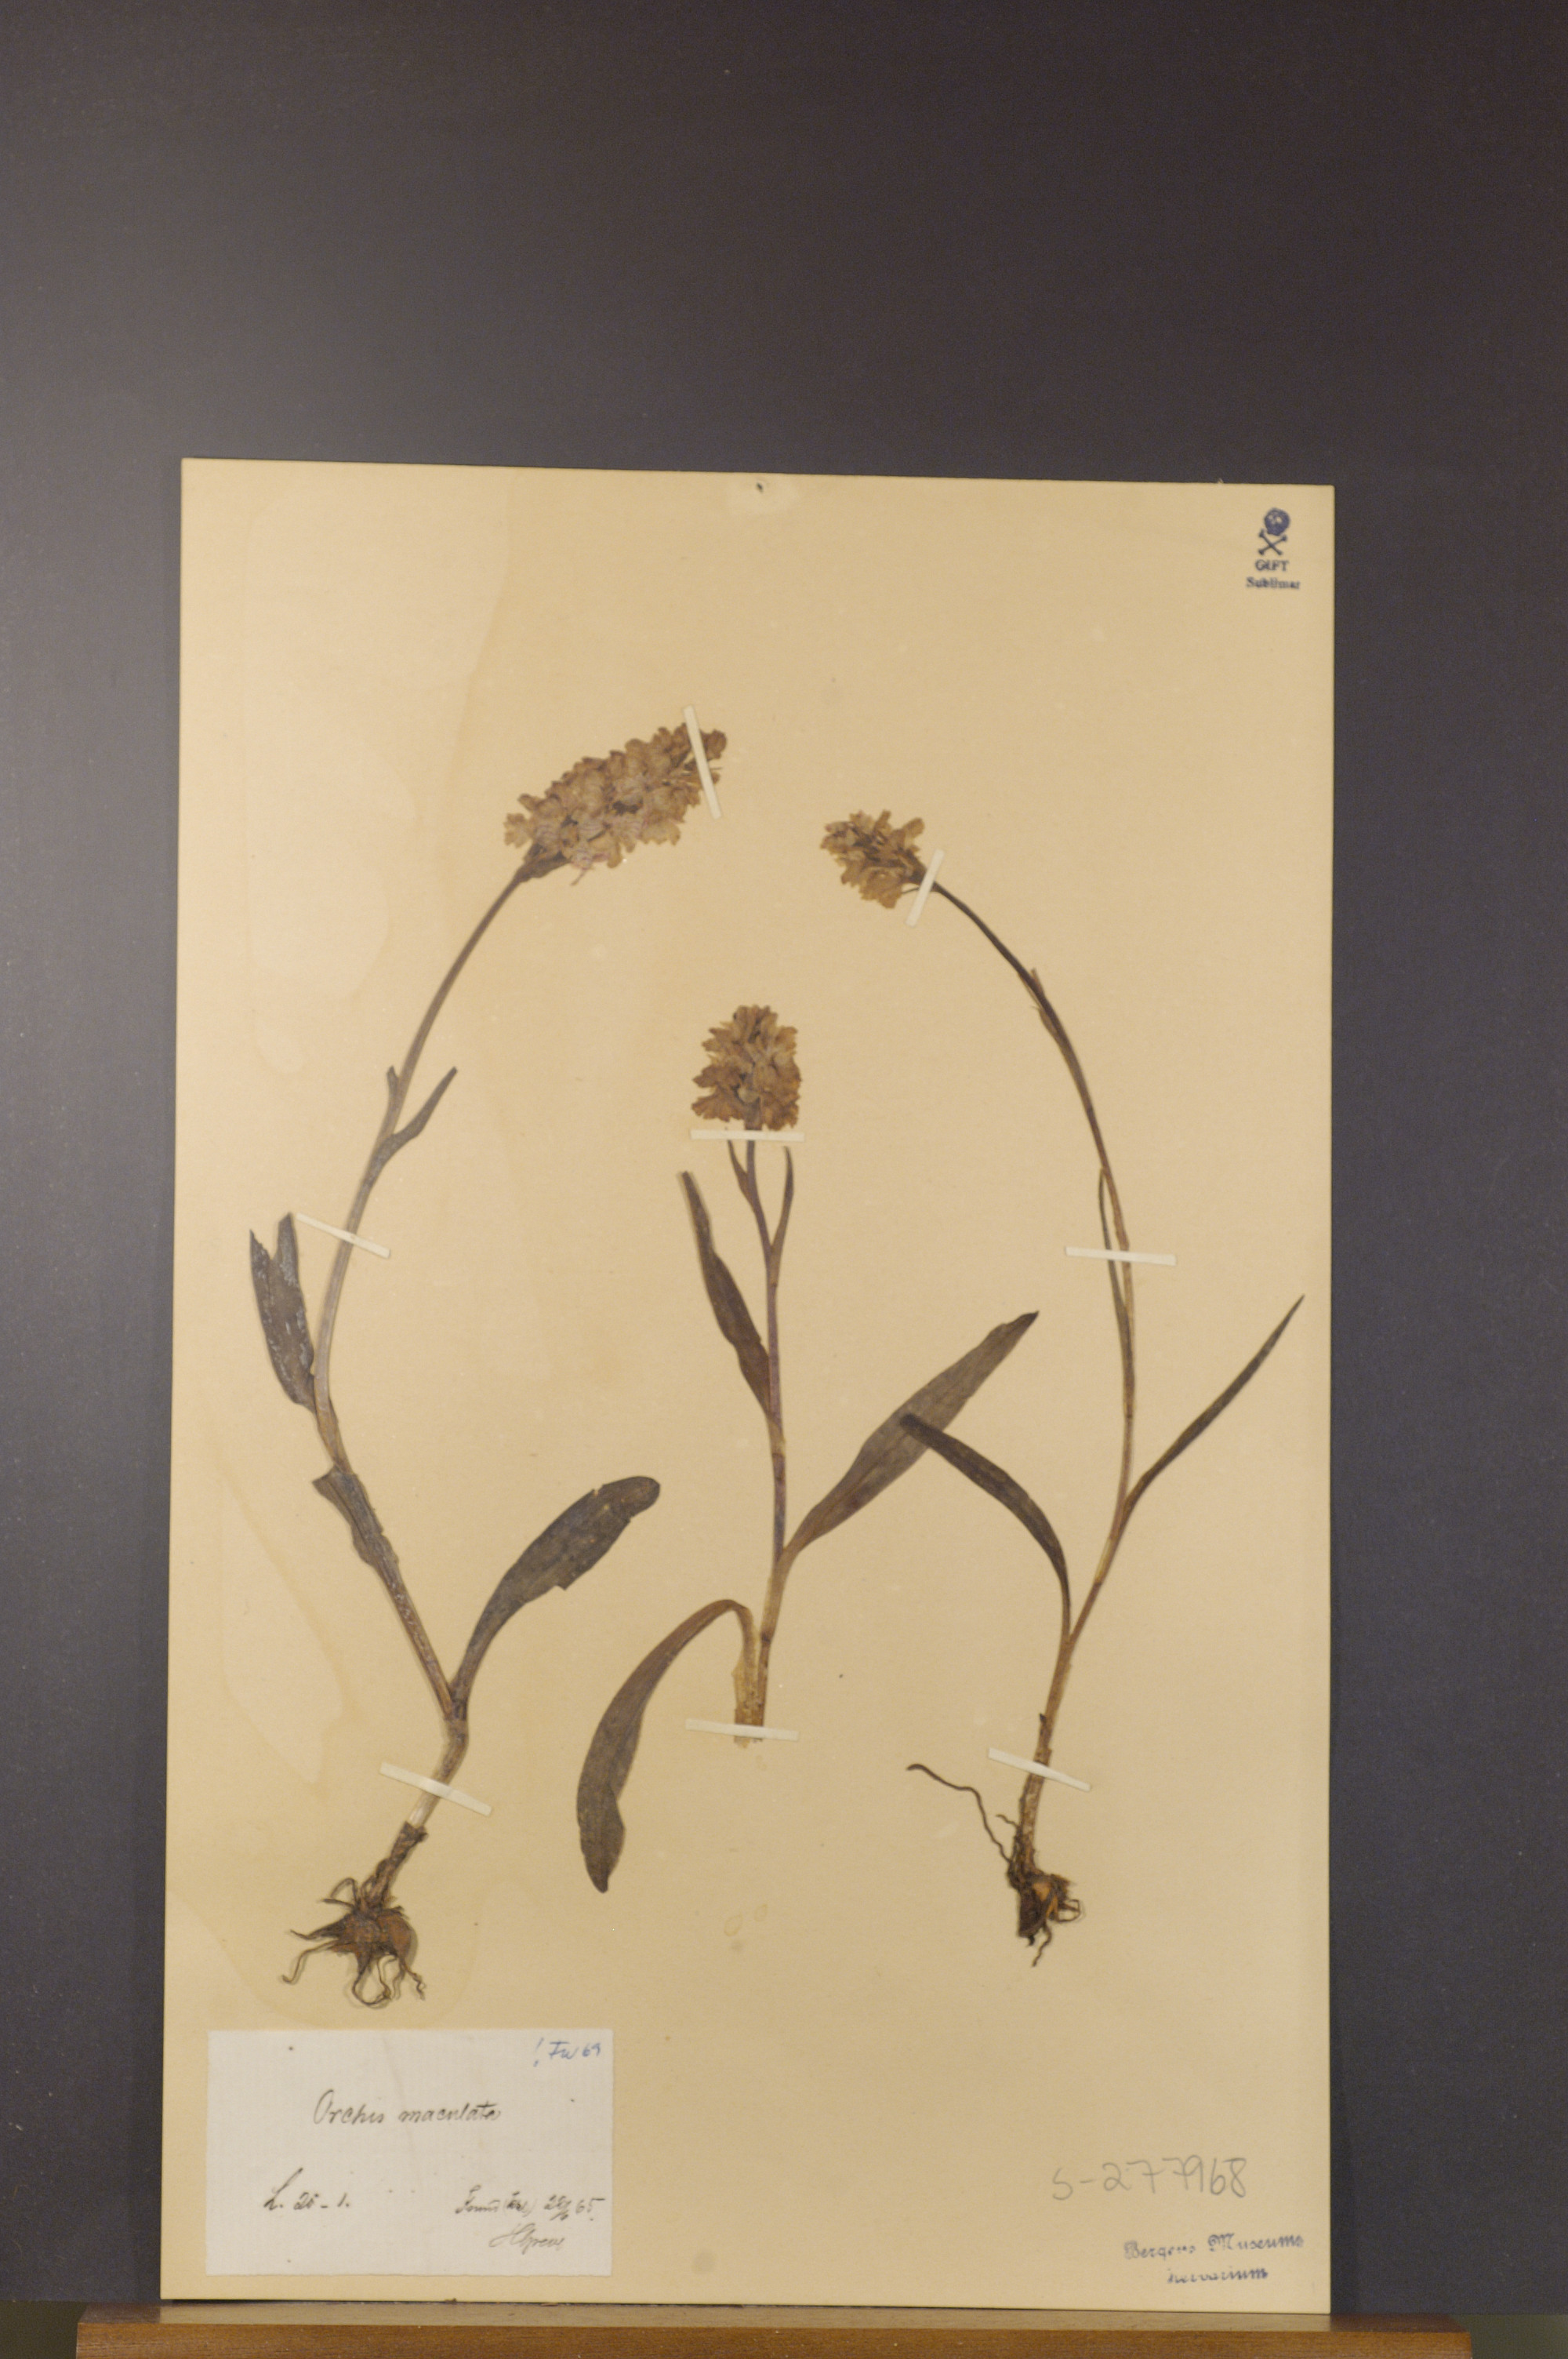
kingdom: Plantae
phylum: Tracheophyta
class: Liliopsida
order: Asparagales
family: Orchidaceae
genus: Dactylorhiza
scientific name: Dactylorhiza maculata
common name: Heath spotted-orchid
